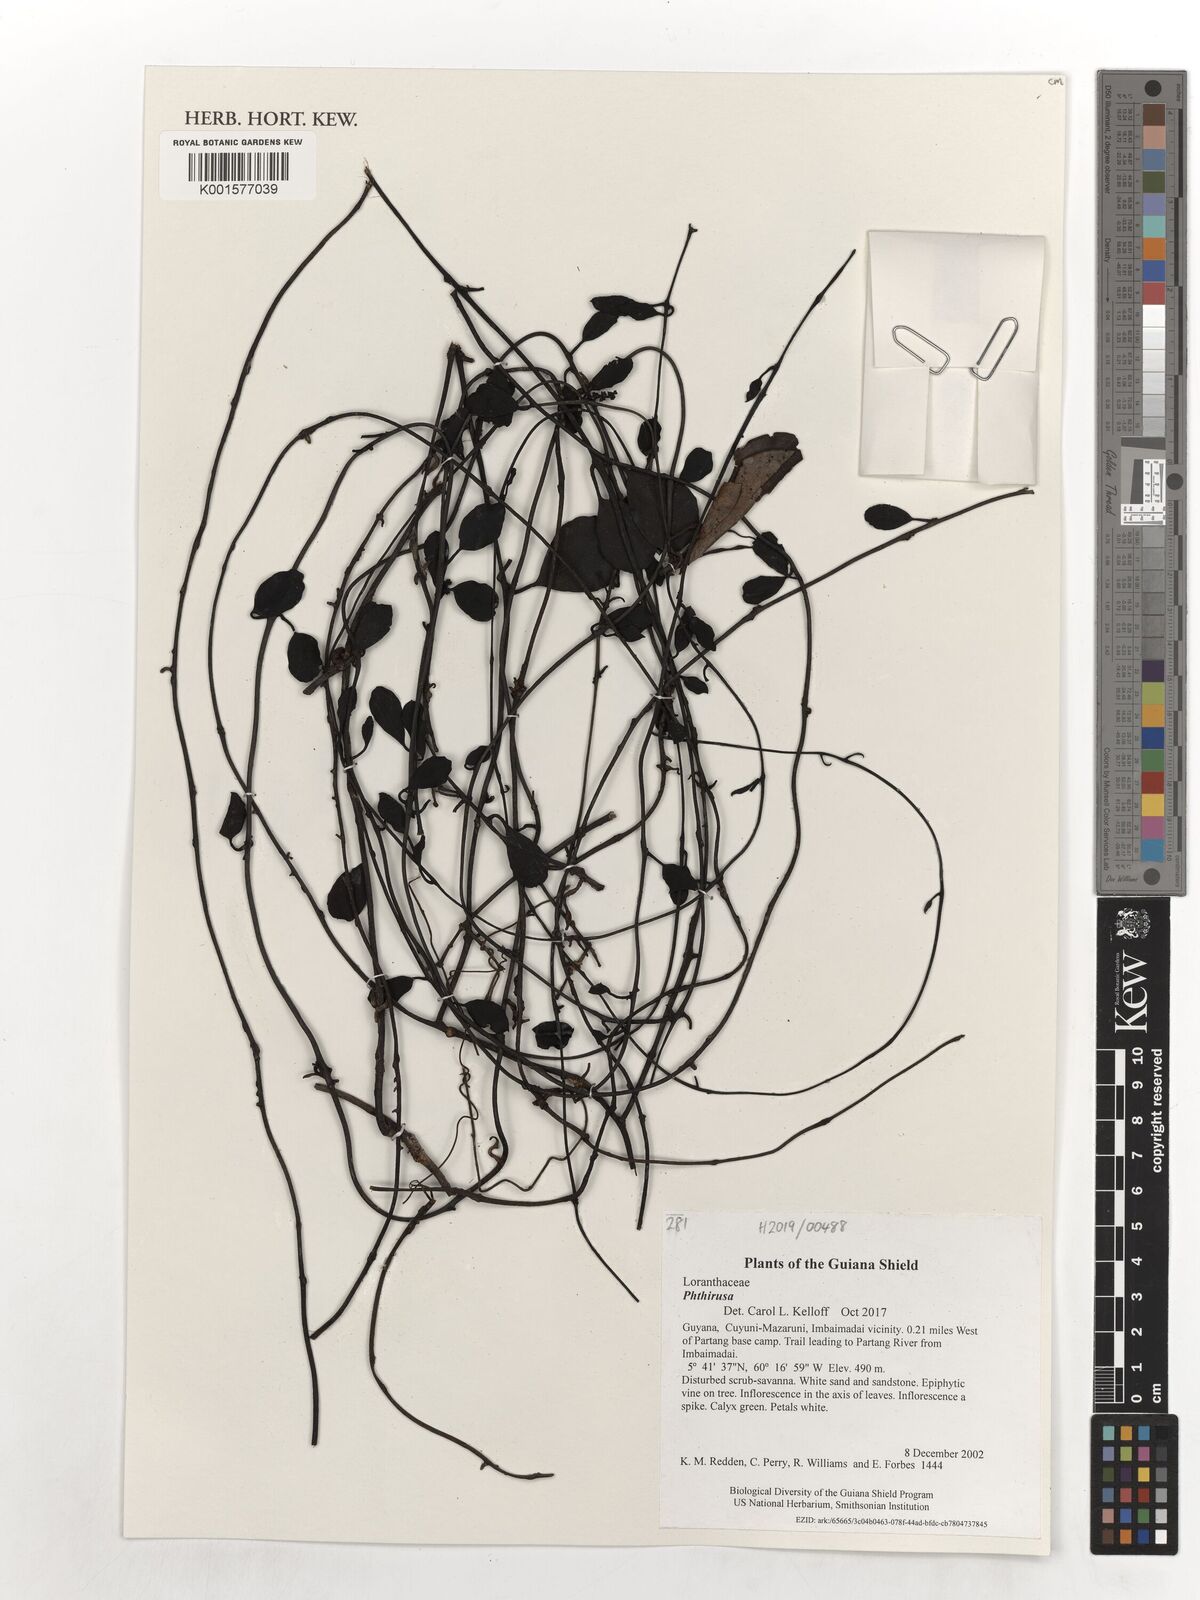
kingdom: Plantae
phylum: Tracheophyta
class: Magnoliopsida
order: Santalales
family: Loranthaceae
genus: Phthirusa
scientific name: Phthirusa
